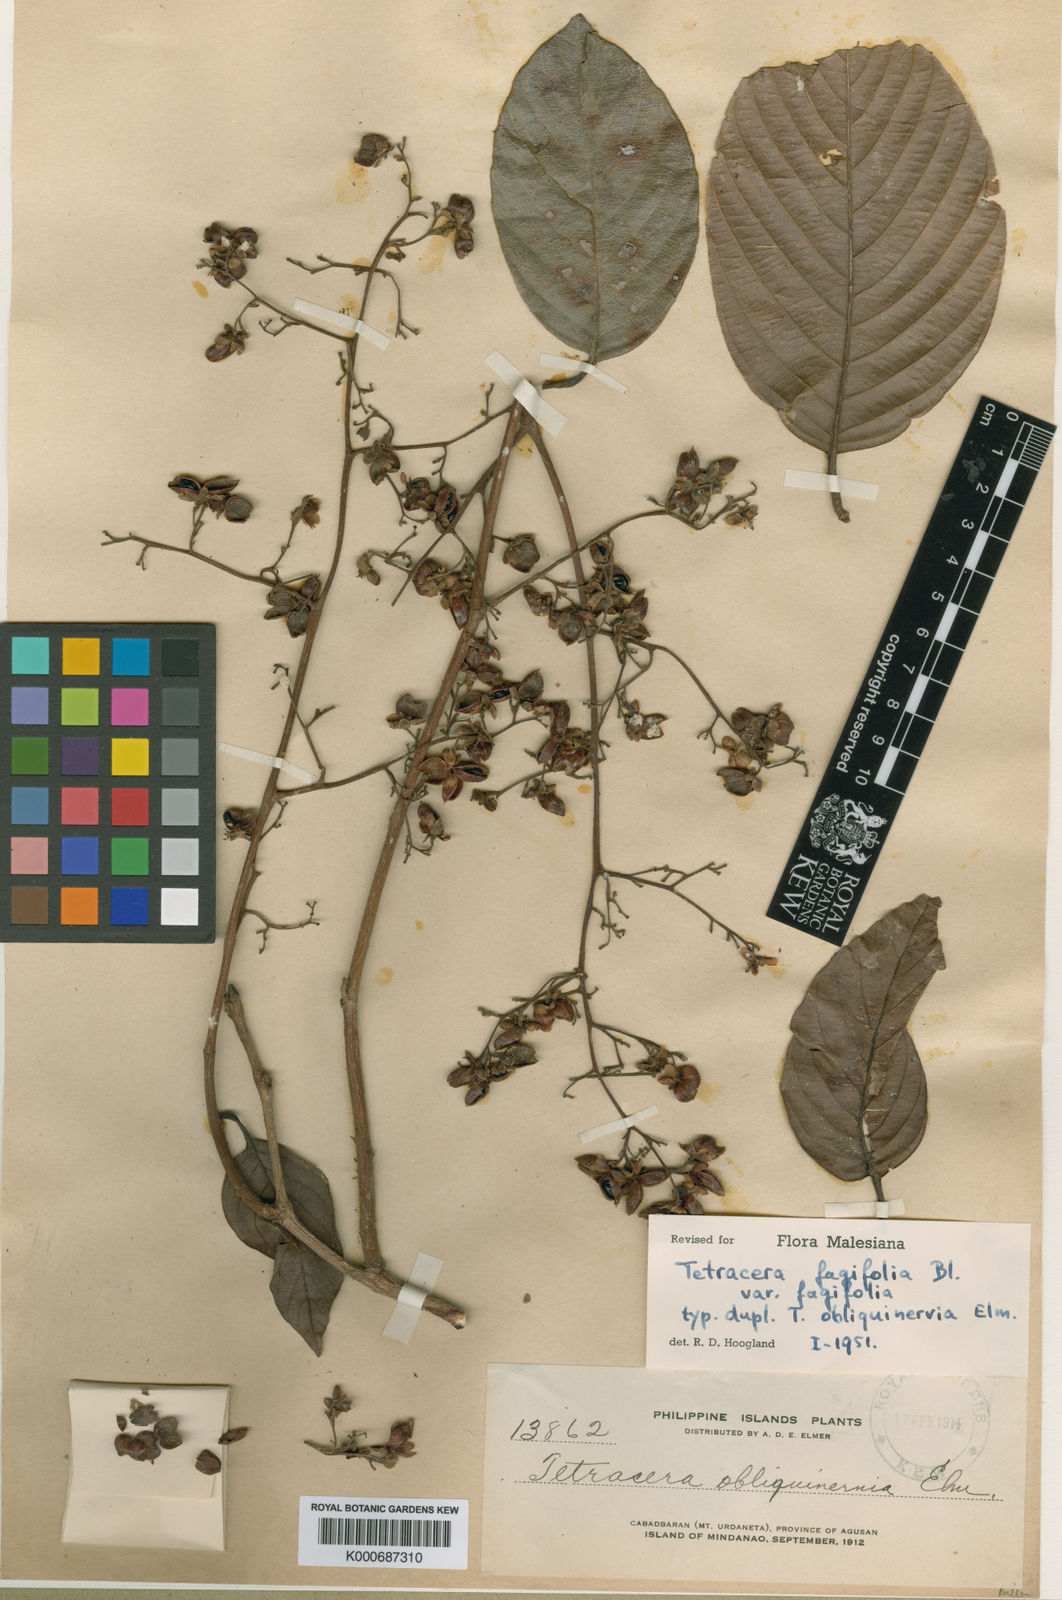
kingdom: Plantae
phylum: Tracheophyta
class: Magnoliopsida
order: Dilleniales
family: Dilleniaceae
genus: Tetracera
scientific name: Tetracera fagifolia
